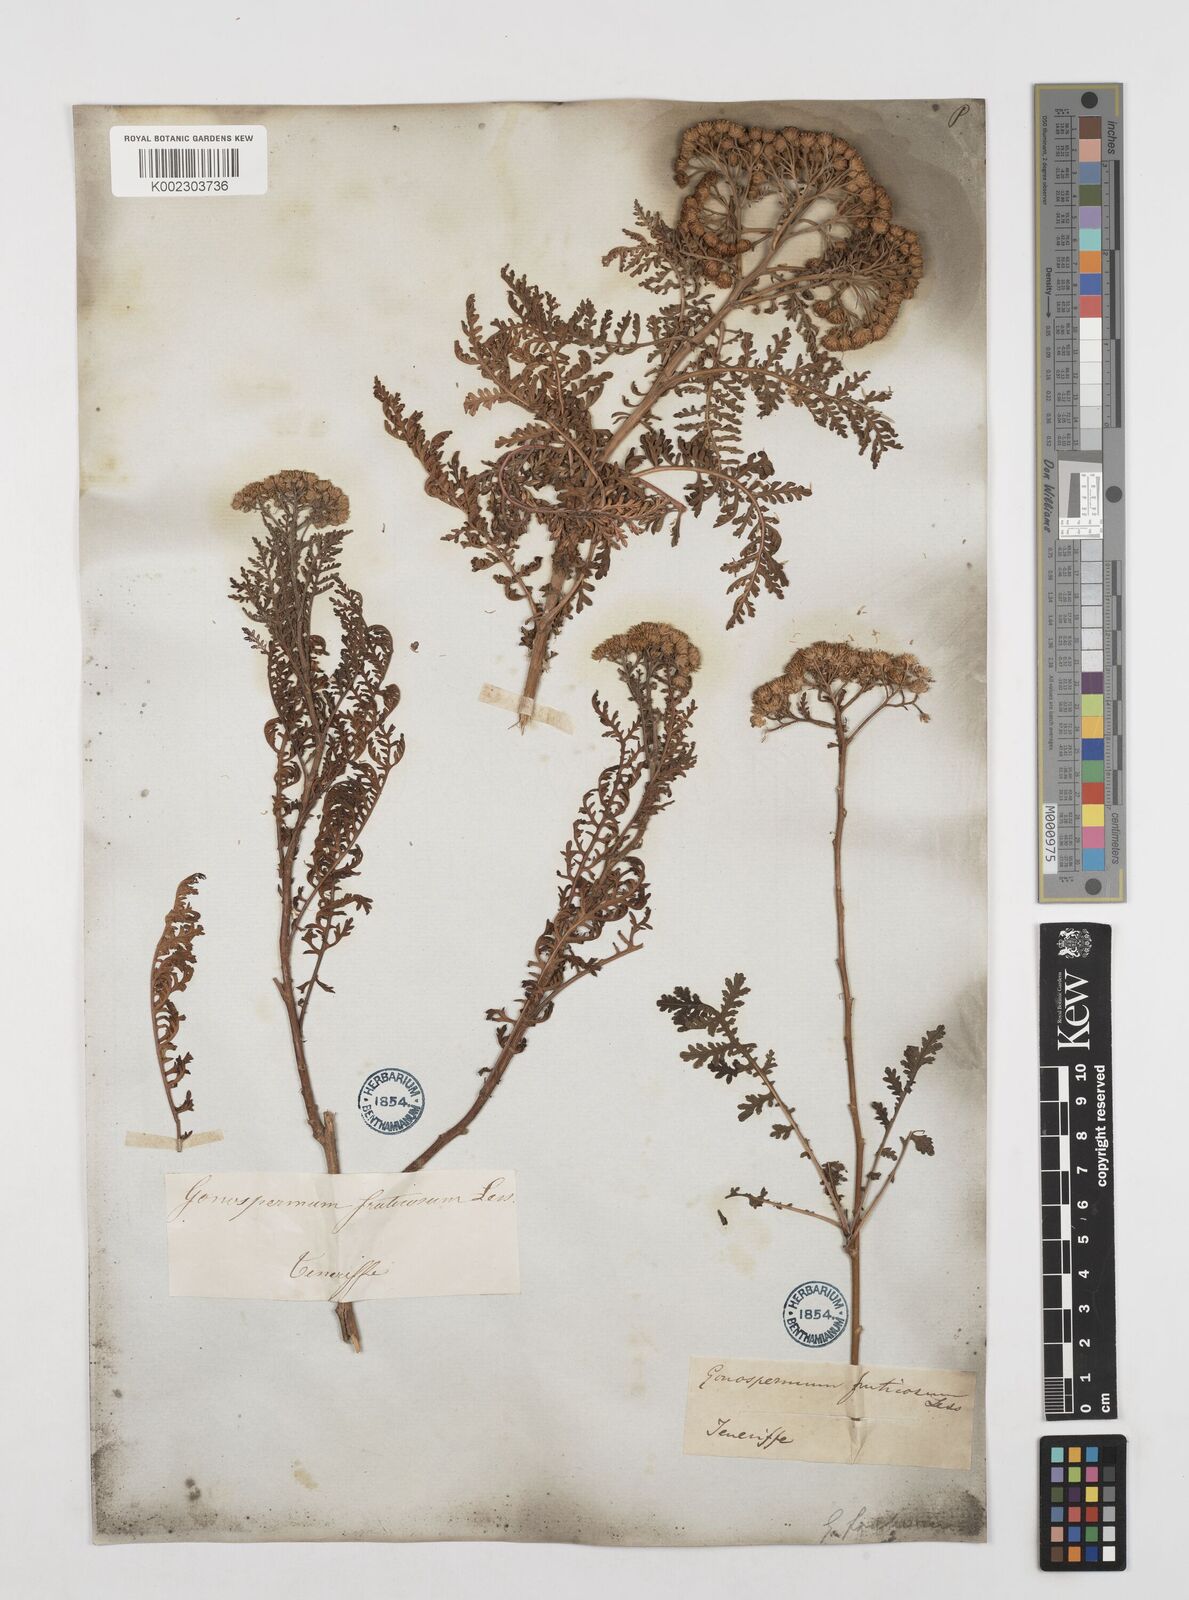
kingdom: Plantae
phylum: Tracheophyta
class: Magnoliopsida
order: Asterales
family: Asteraceae
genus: Gonospermum
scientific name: Gonospermum fruticosum
